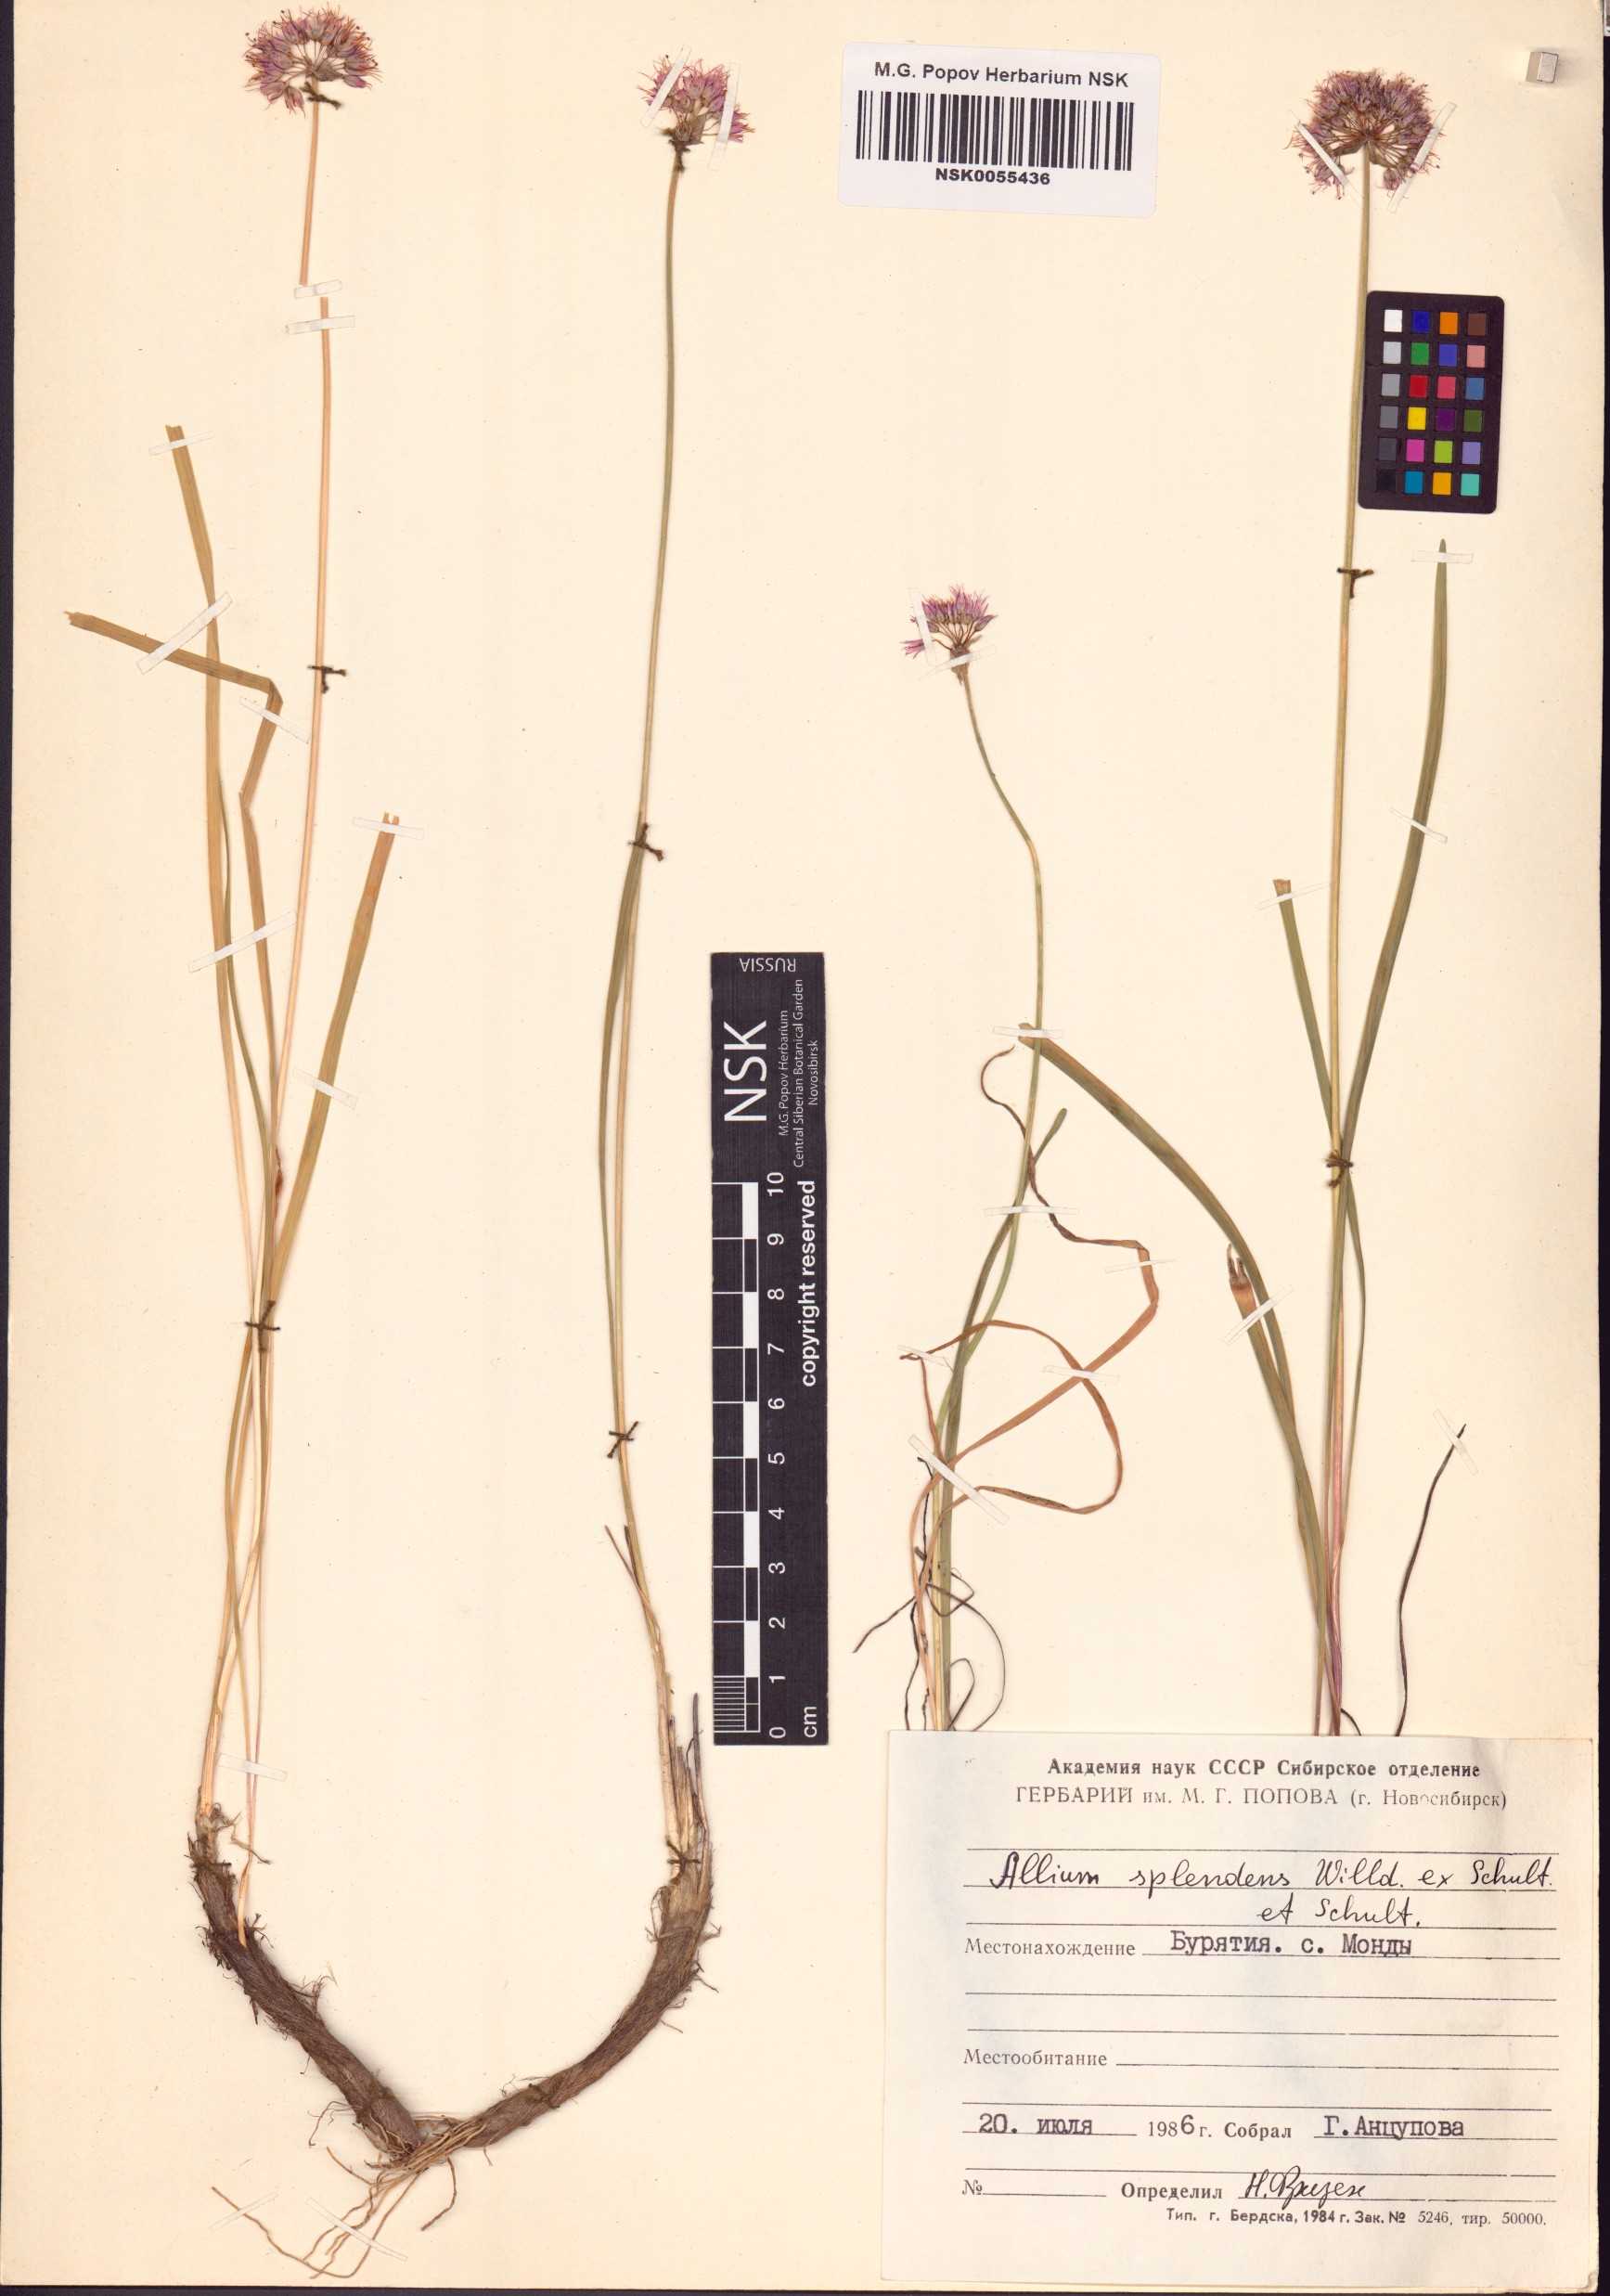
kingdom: Plantae
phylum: Tracheophyta
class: Liliopsida
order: Asparagales
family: Amaryllidaceae
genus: Allium
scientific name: Allium splendens
